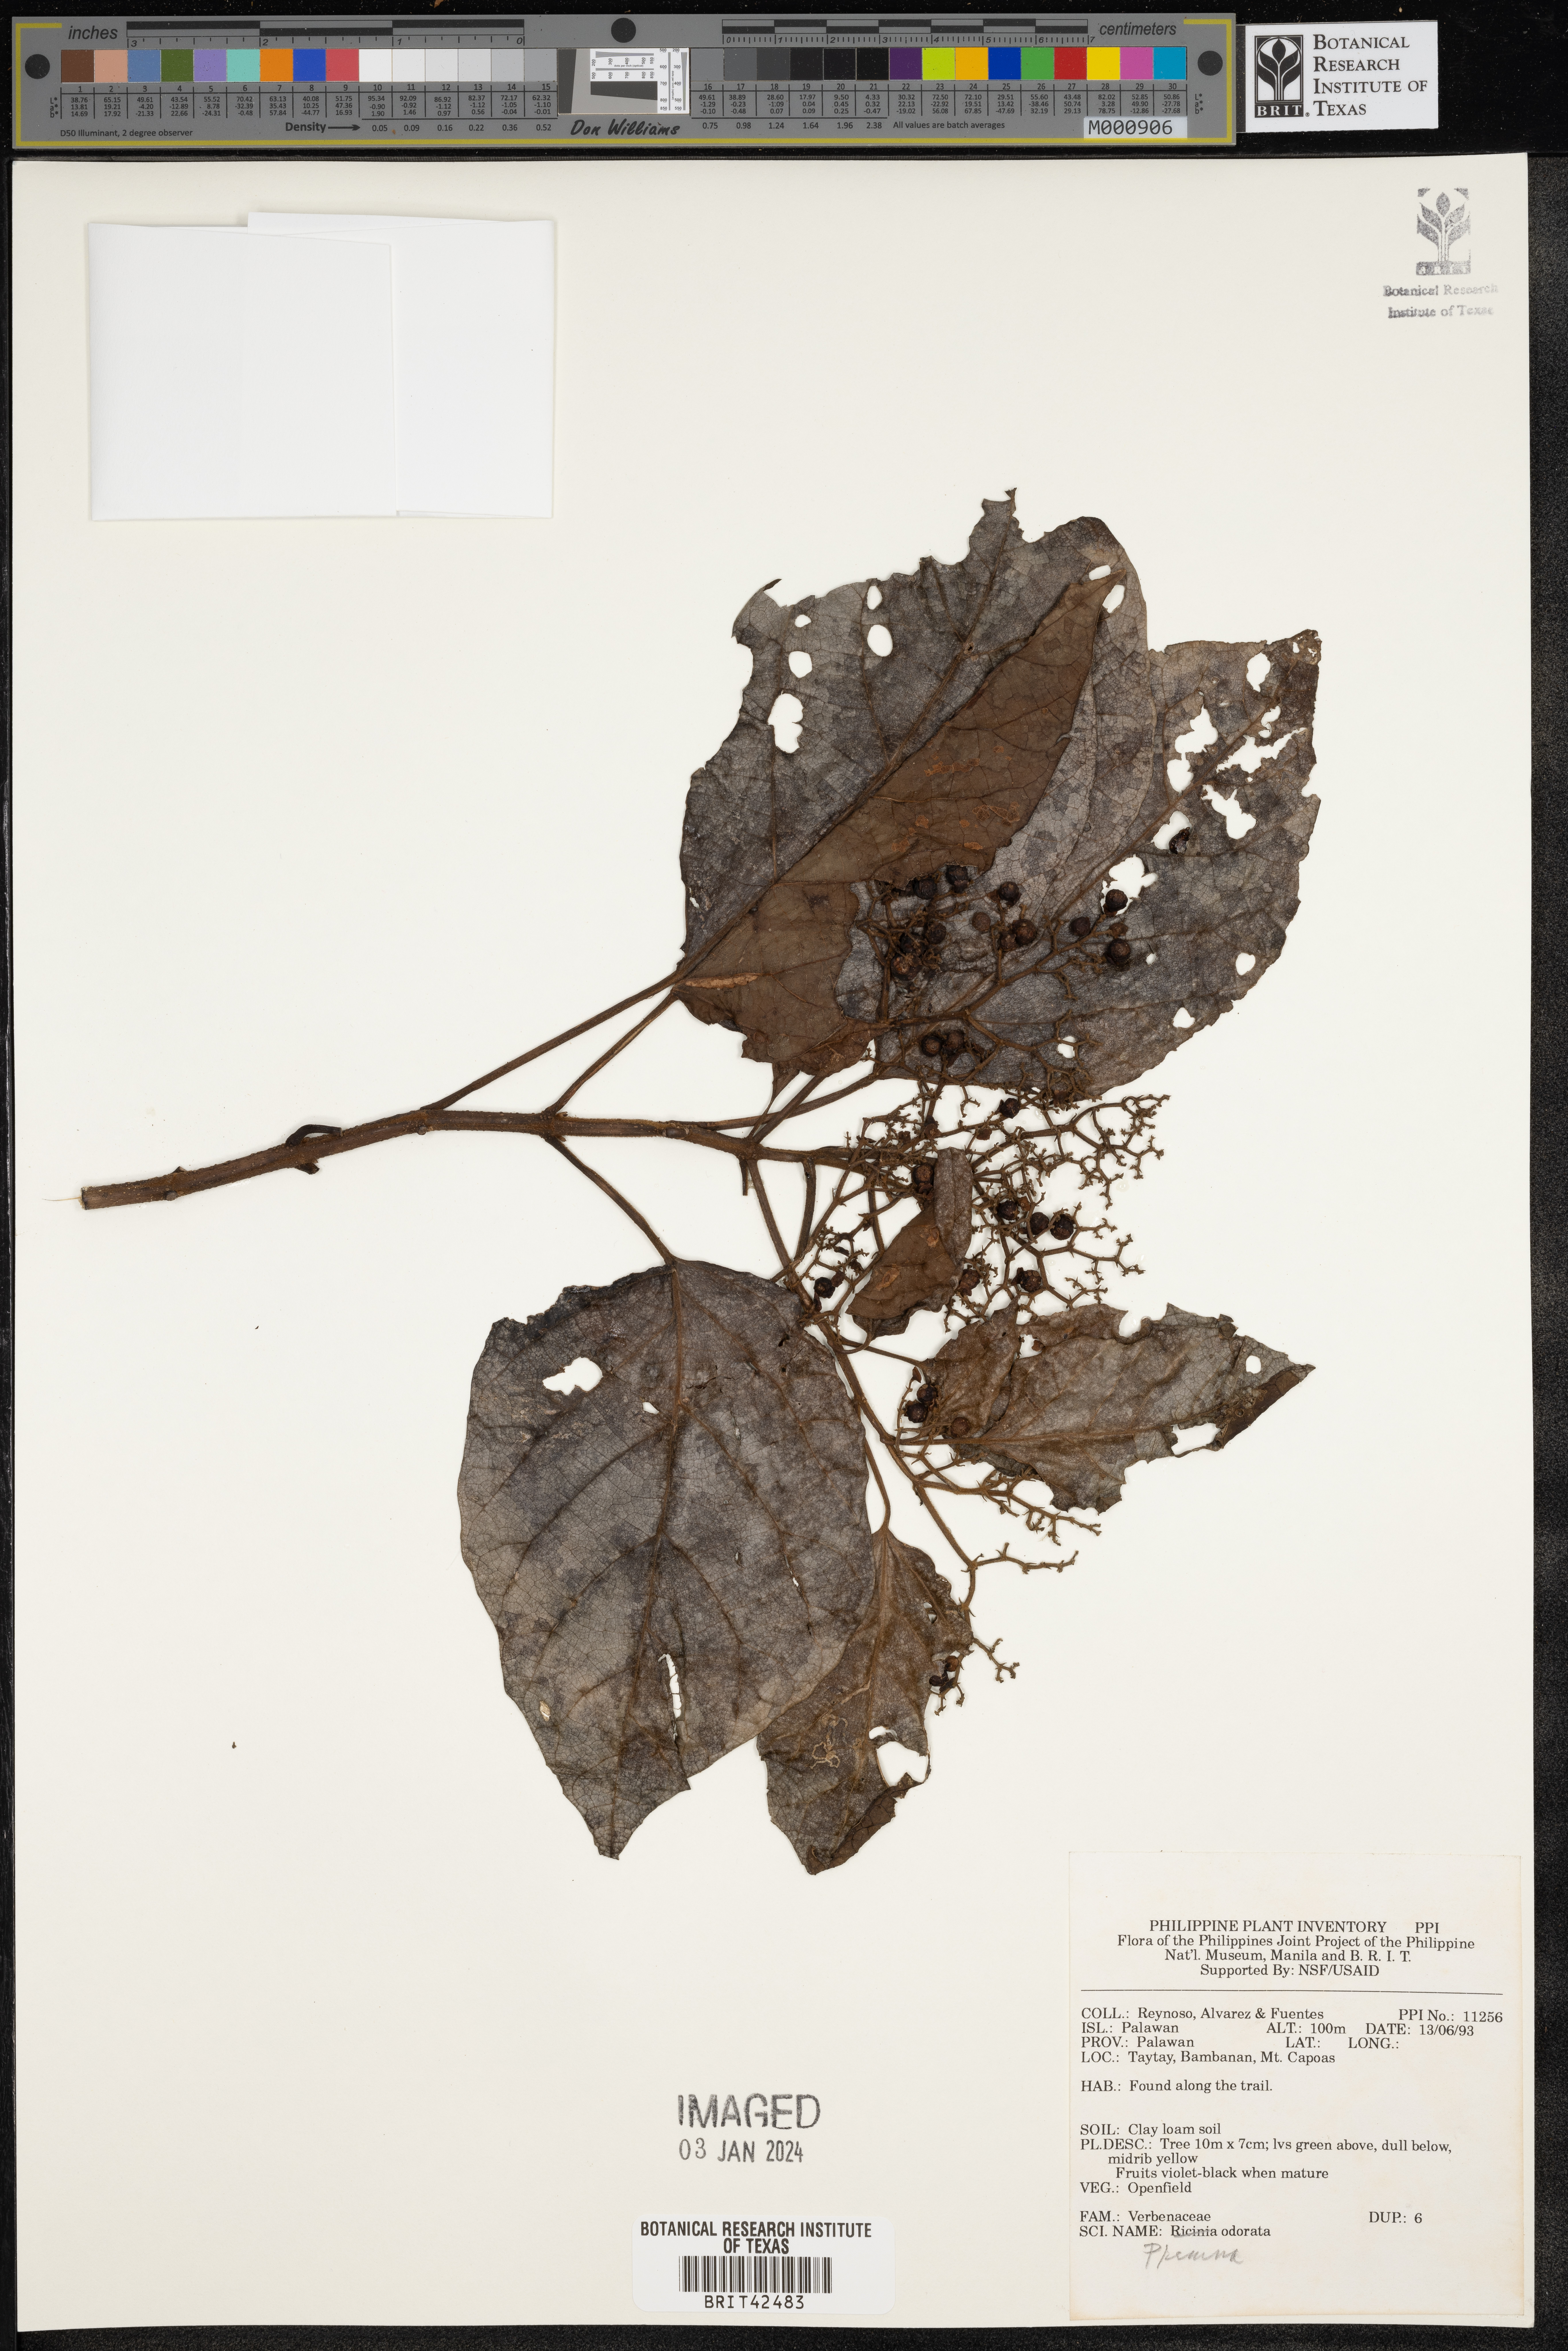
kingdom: Plantae
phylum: Tracheophyta
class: Magnoliopsida
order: Lamiales
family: Lamiaceae
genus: Premna
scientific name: Premna odorata
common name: Fragrant premna
